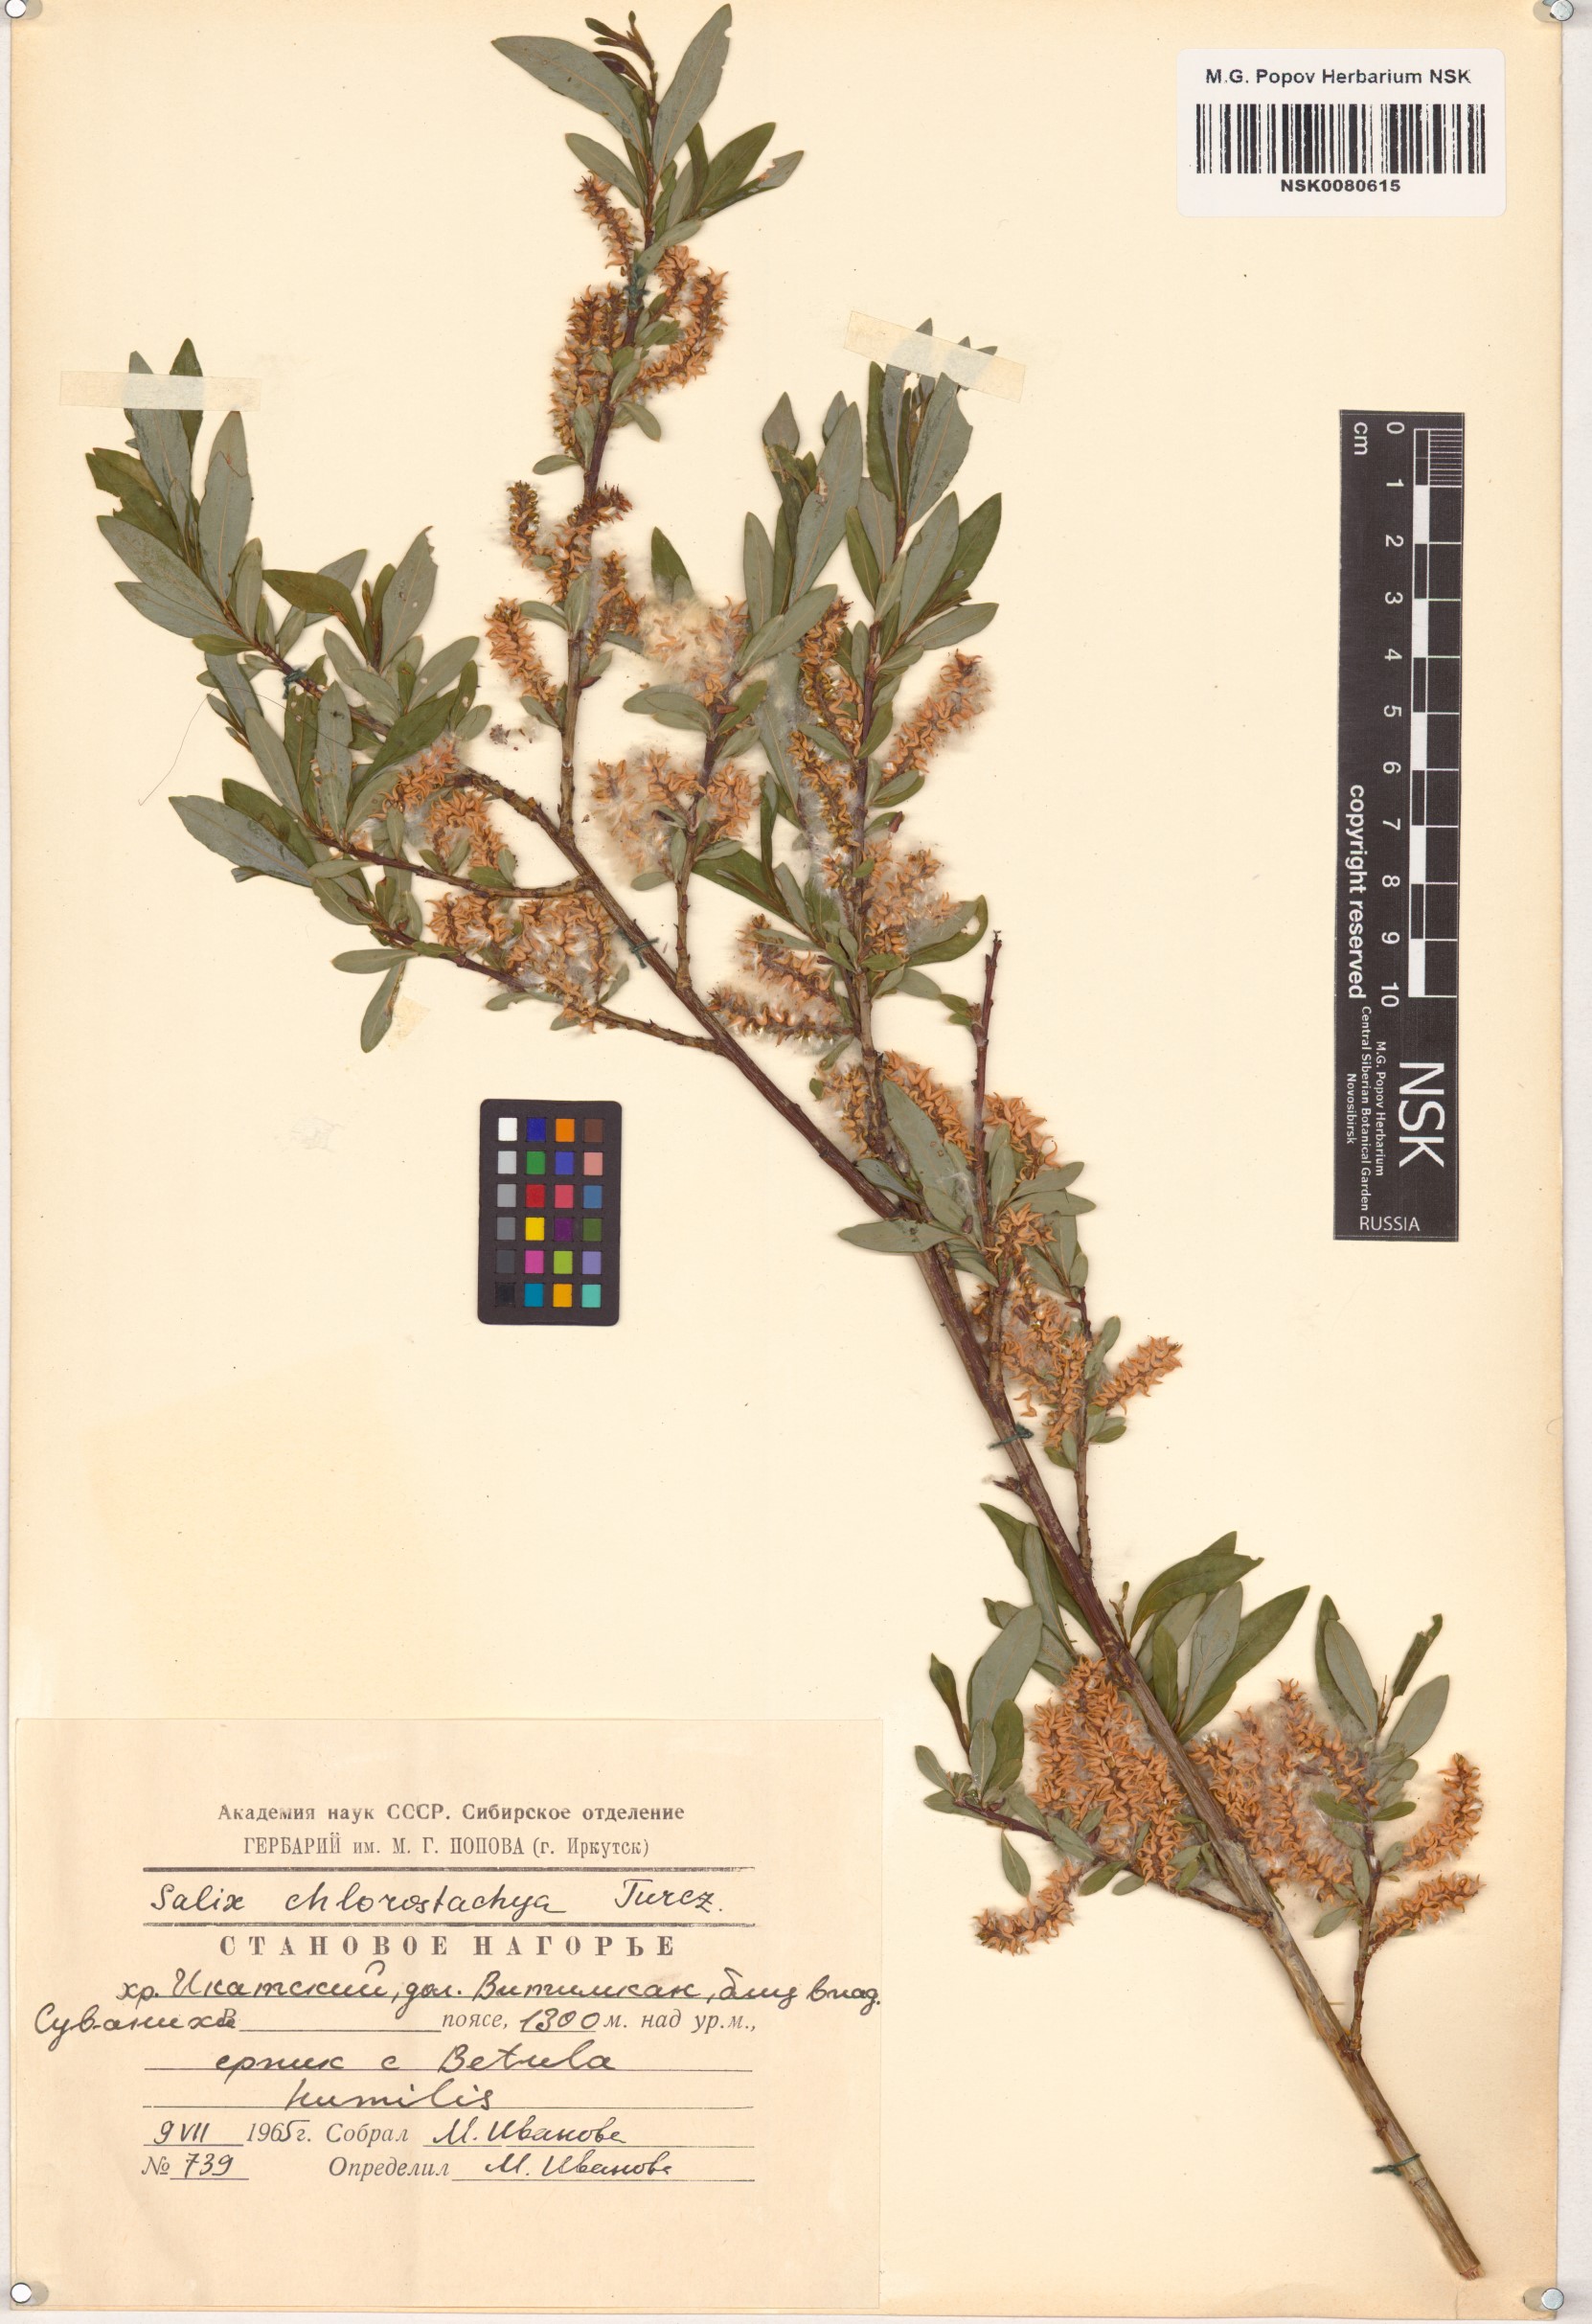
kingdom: Plantae
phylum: Tracheophyta
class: Magnoliopsida
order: Malpighiales
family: Salicaceae
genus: Salix
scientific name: Salix rhamnifolia
